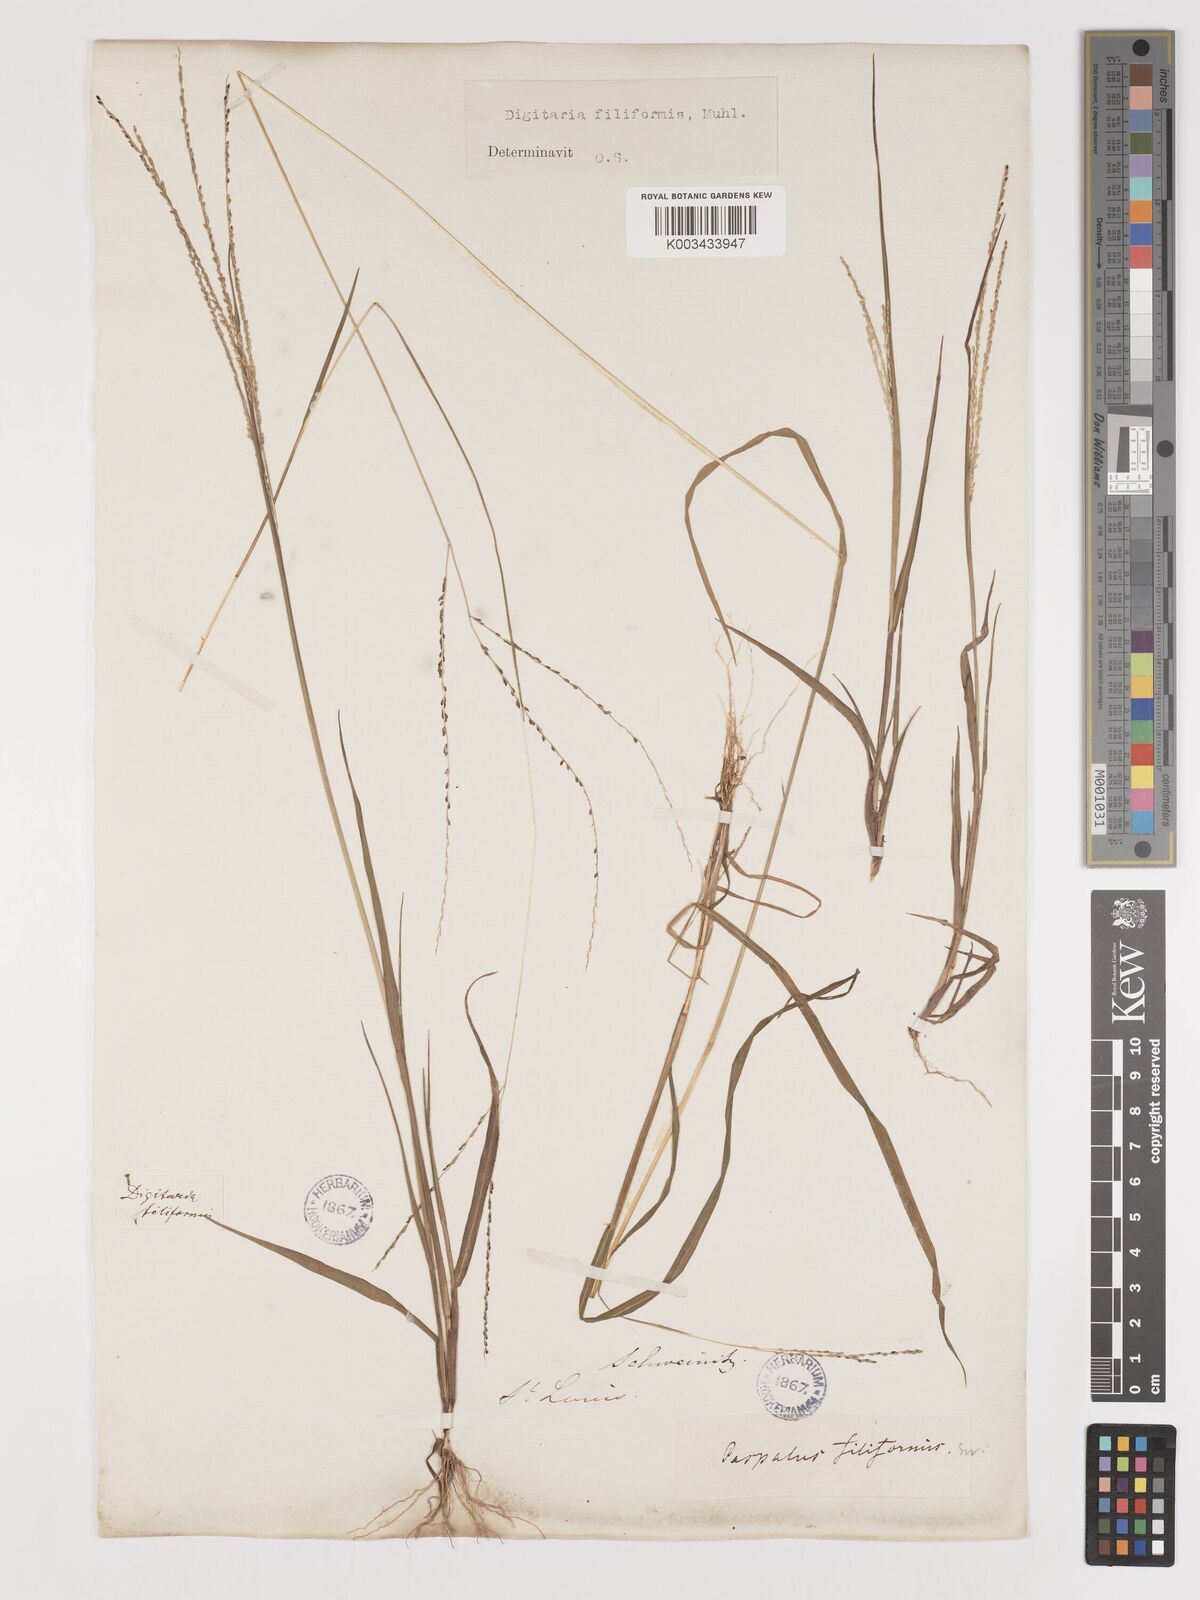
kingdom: Plantae
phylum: Tracheophyta
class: Liliopsida
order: Poales
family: Poaceae
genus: Digitaria
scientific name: Digitaria filiformis
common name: Slender crabgrass
